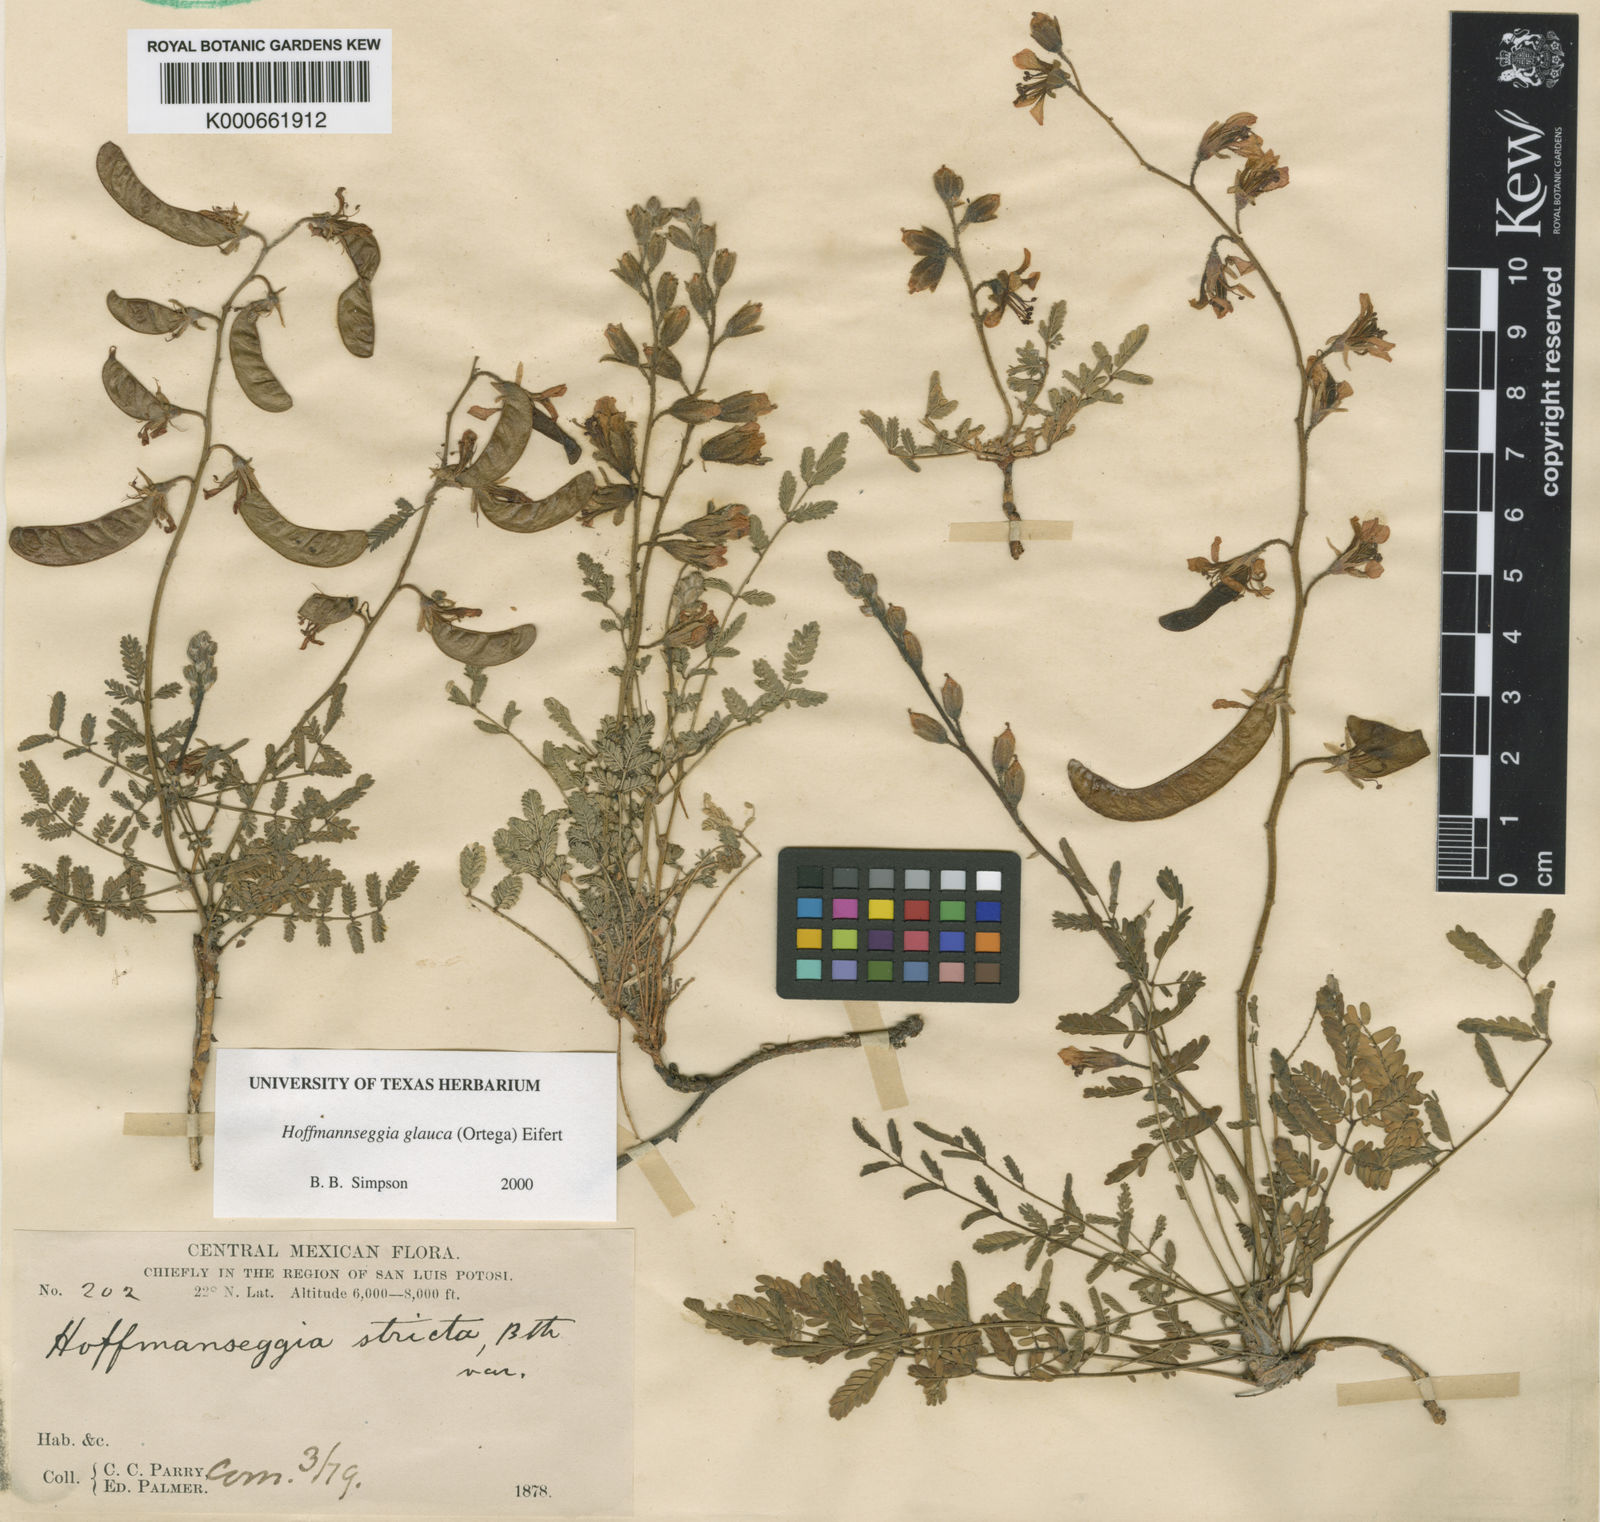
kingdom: Plantae
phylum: Tracheophyta
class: Magnoliopsida
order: Fabales
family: Fabaceae
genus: Hoffmannseggia
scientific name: Hoffmannseggia glauca
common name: Pignut
